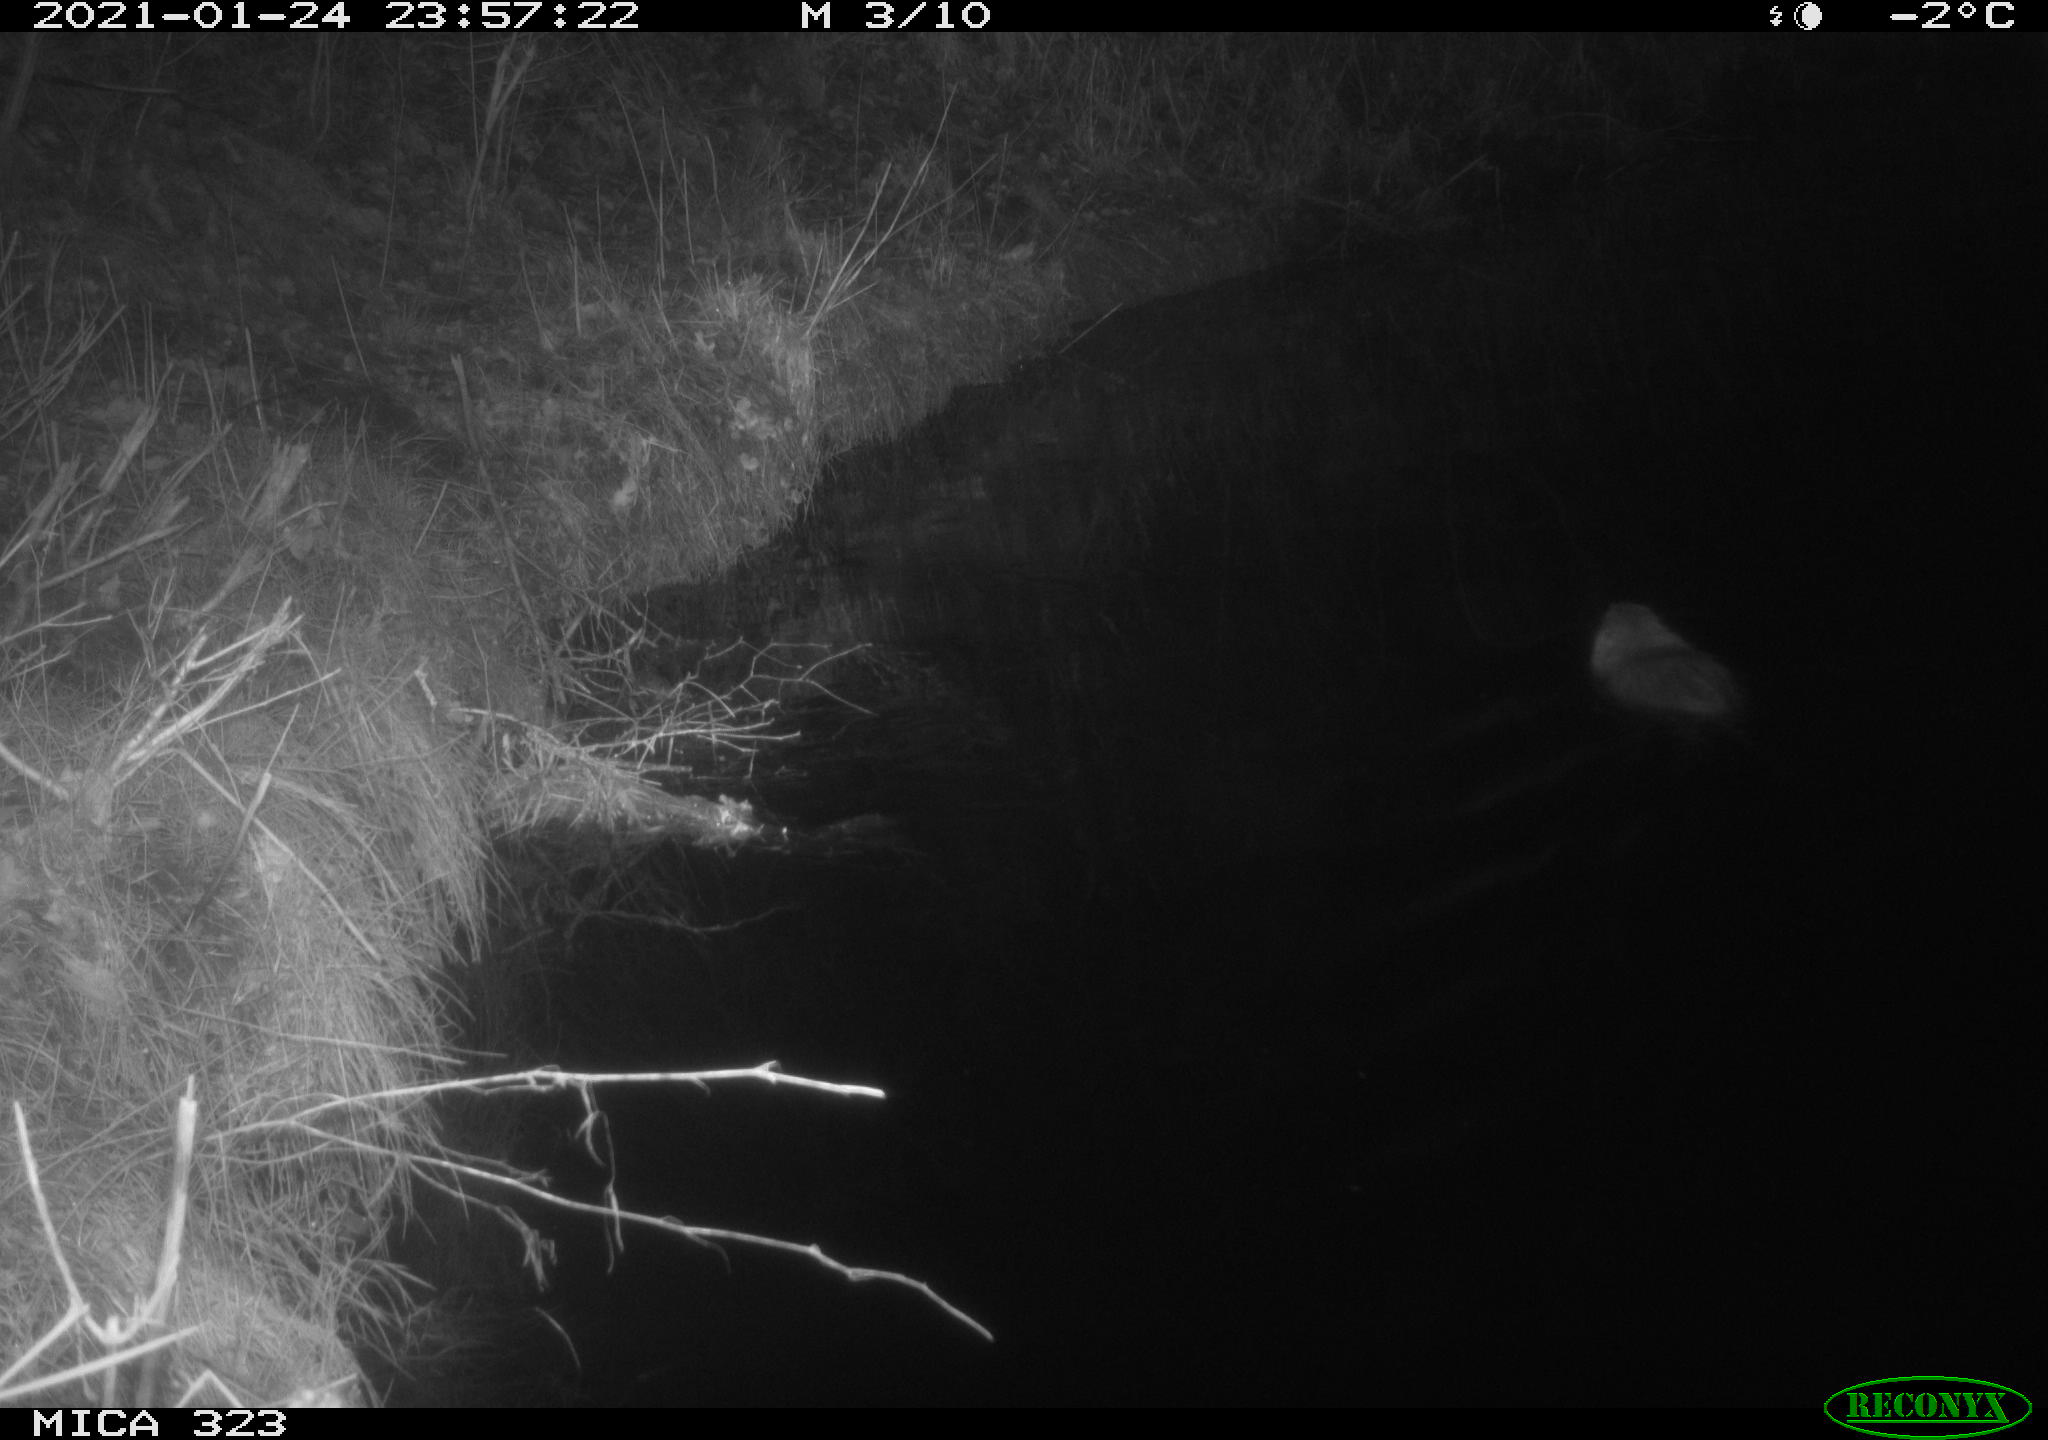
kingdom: Animalia
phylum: Chordata
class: Mammalia
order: Rodentia
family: Myocastoridae
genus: Myocastor
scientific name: Myocastor coypus
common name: Coypu
